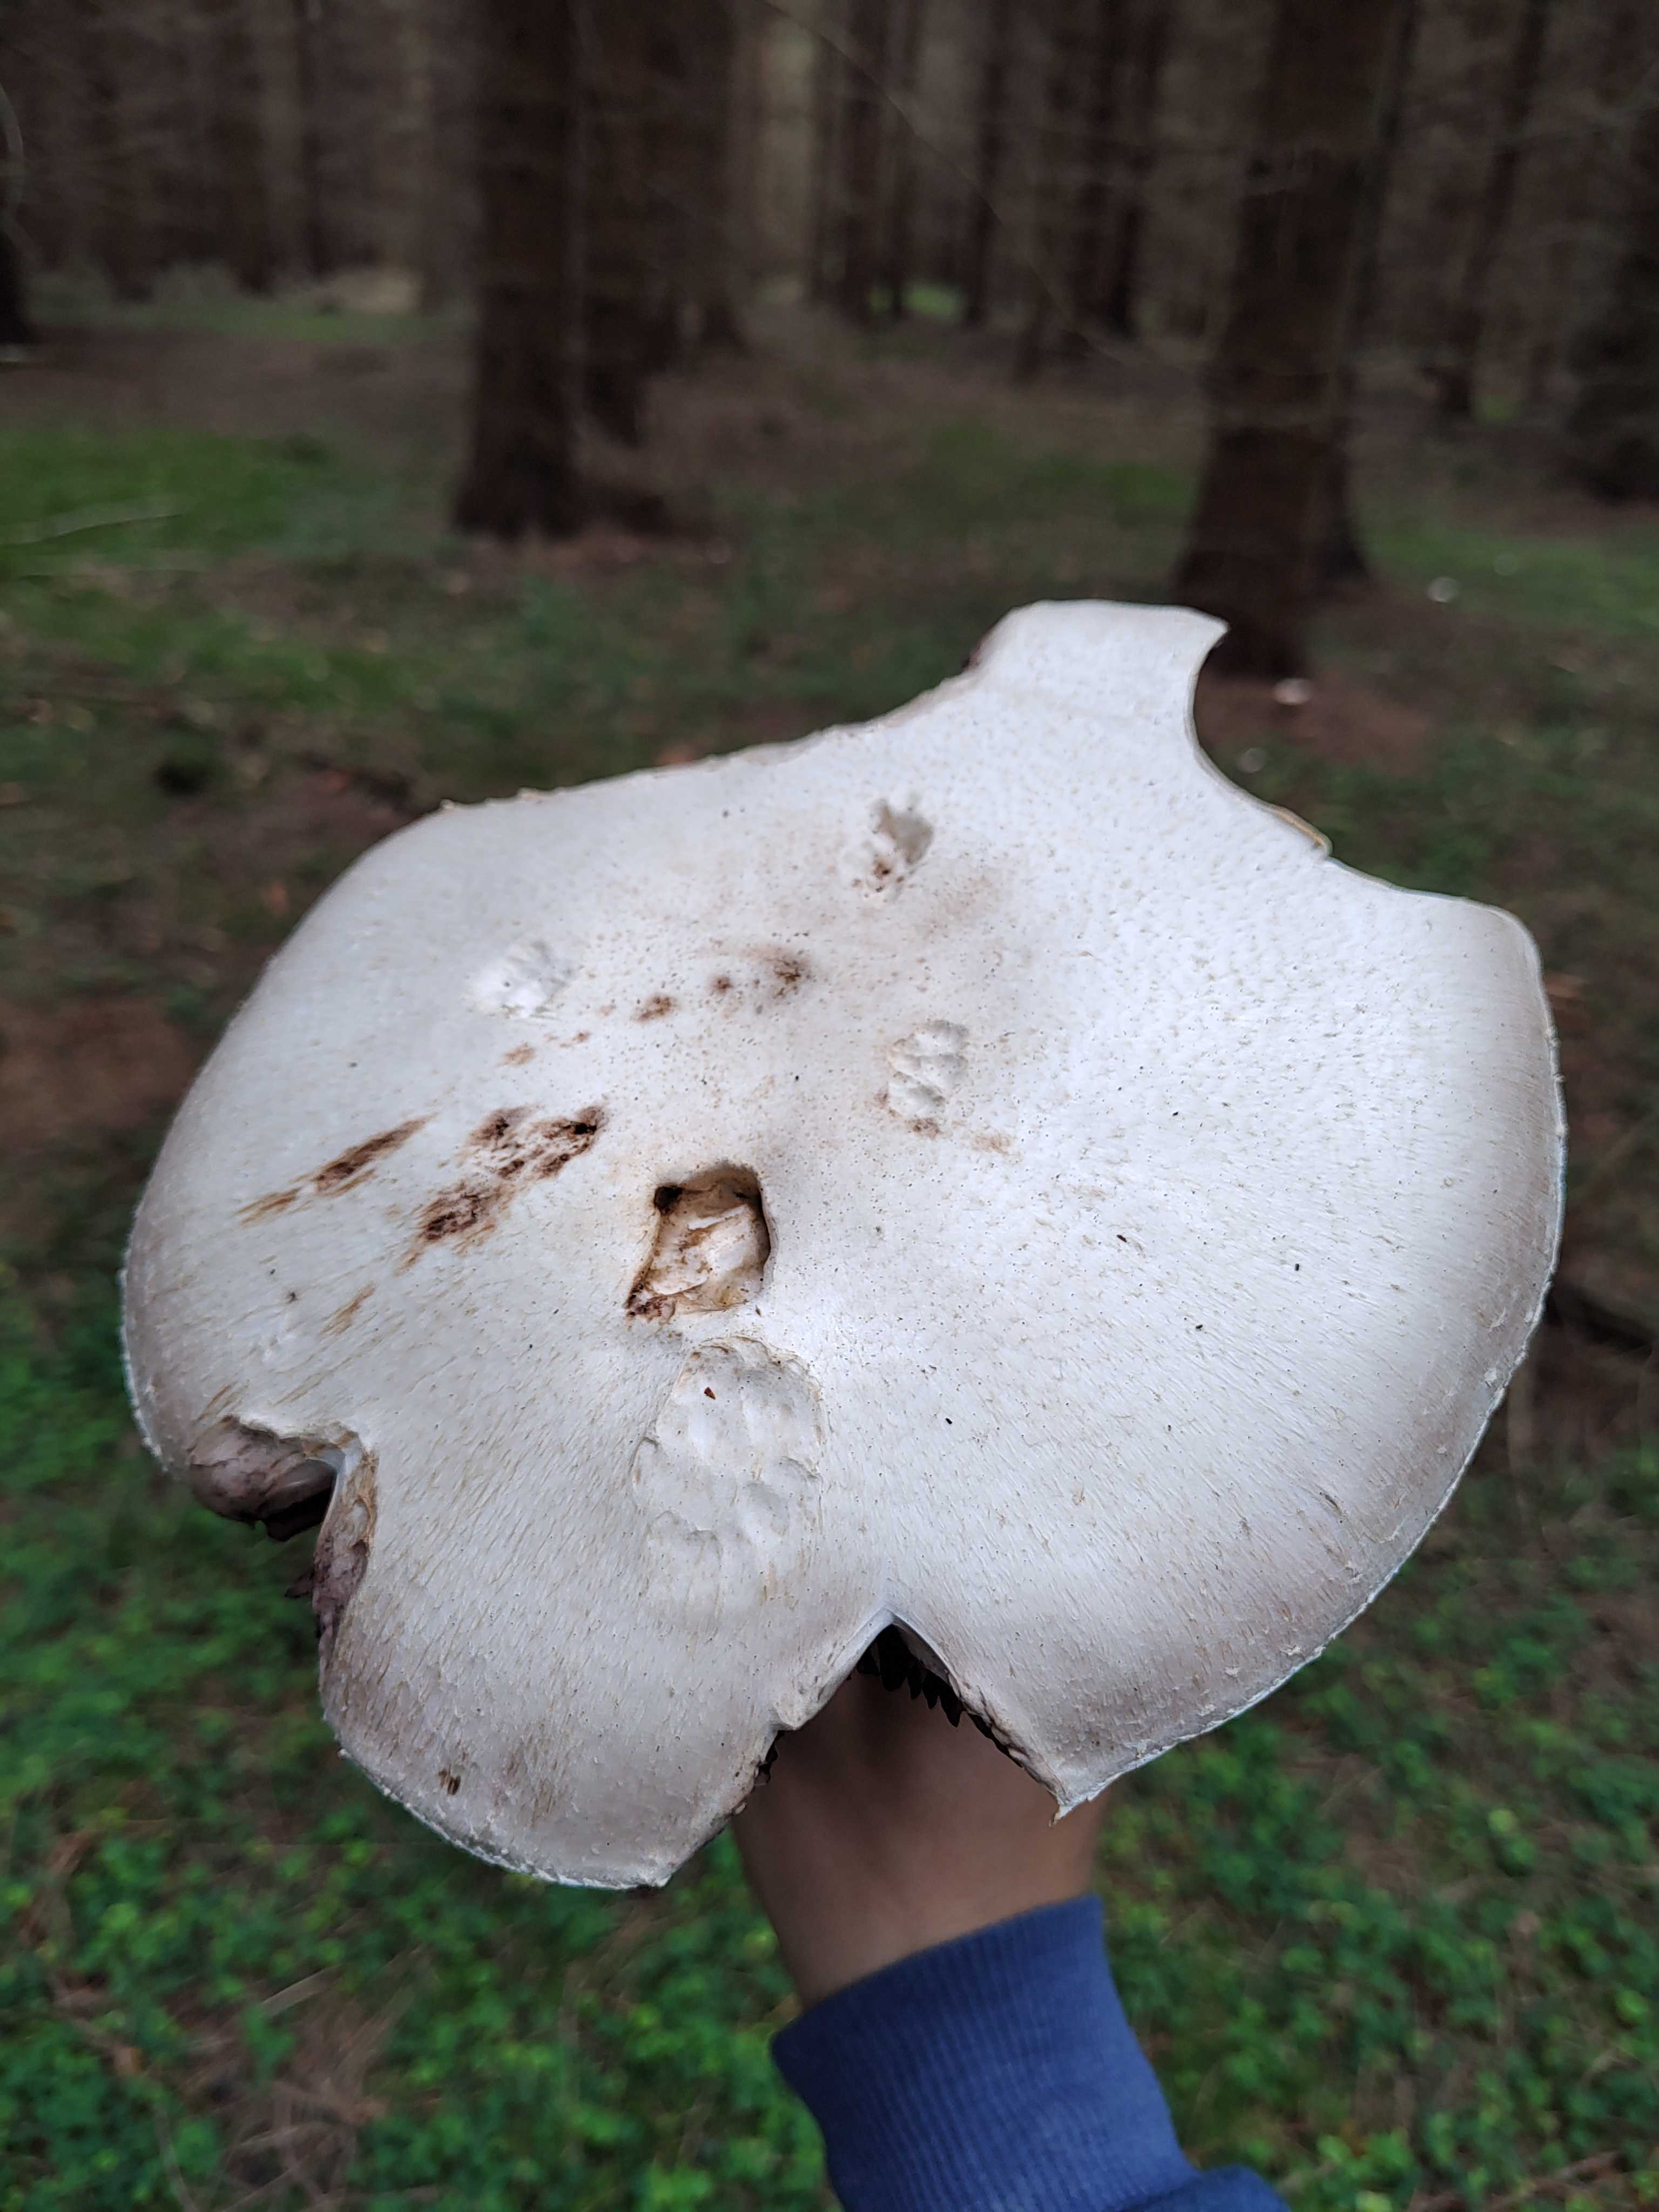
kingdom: Fungi
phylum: Basidiomycota
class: Agaricomycetes
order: Agaricales
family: Agaricaceae
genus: Agaricus
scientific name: Agaricus
